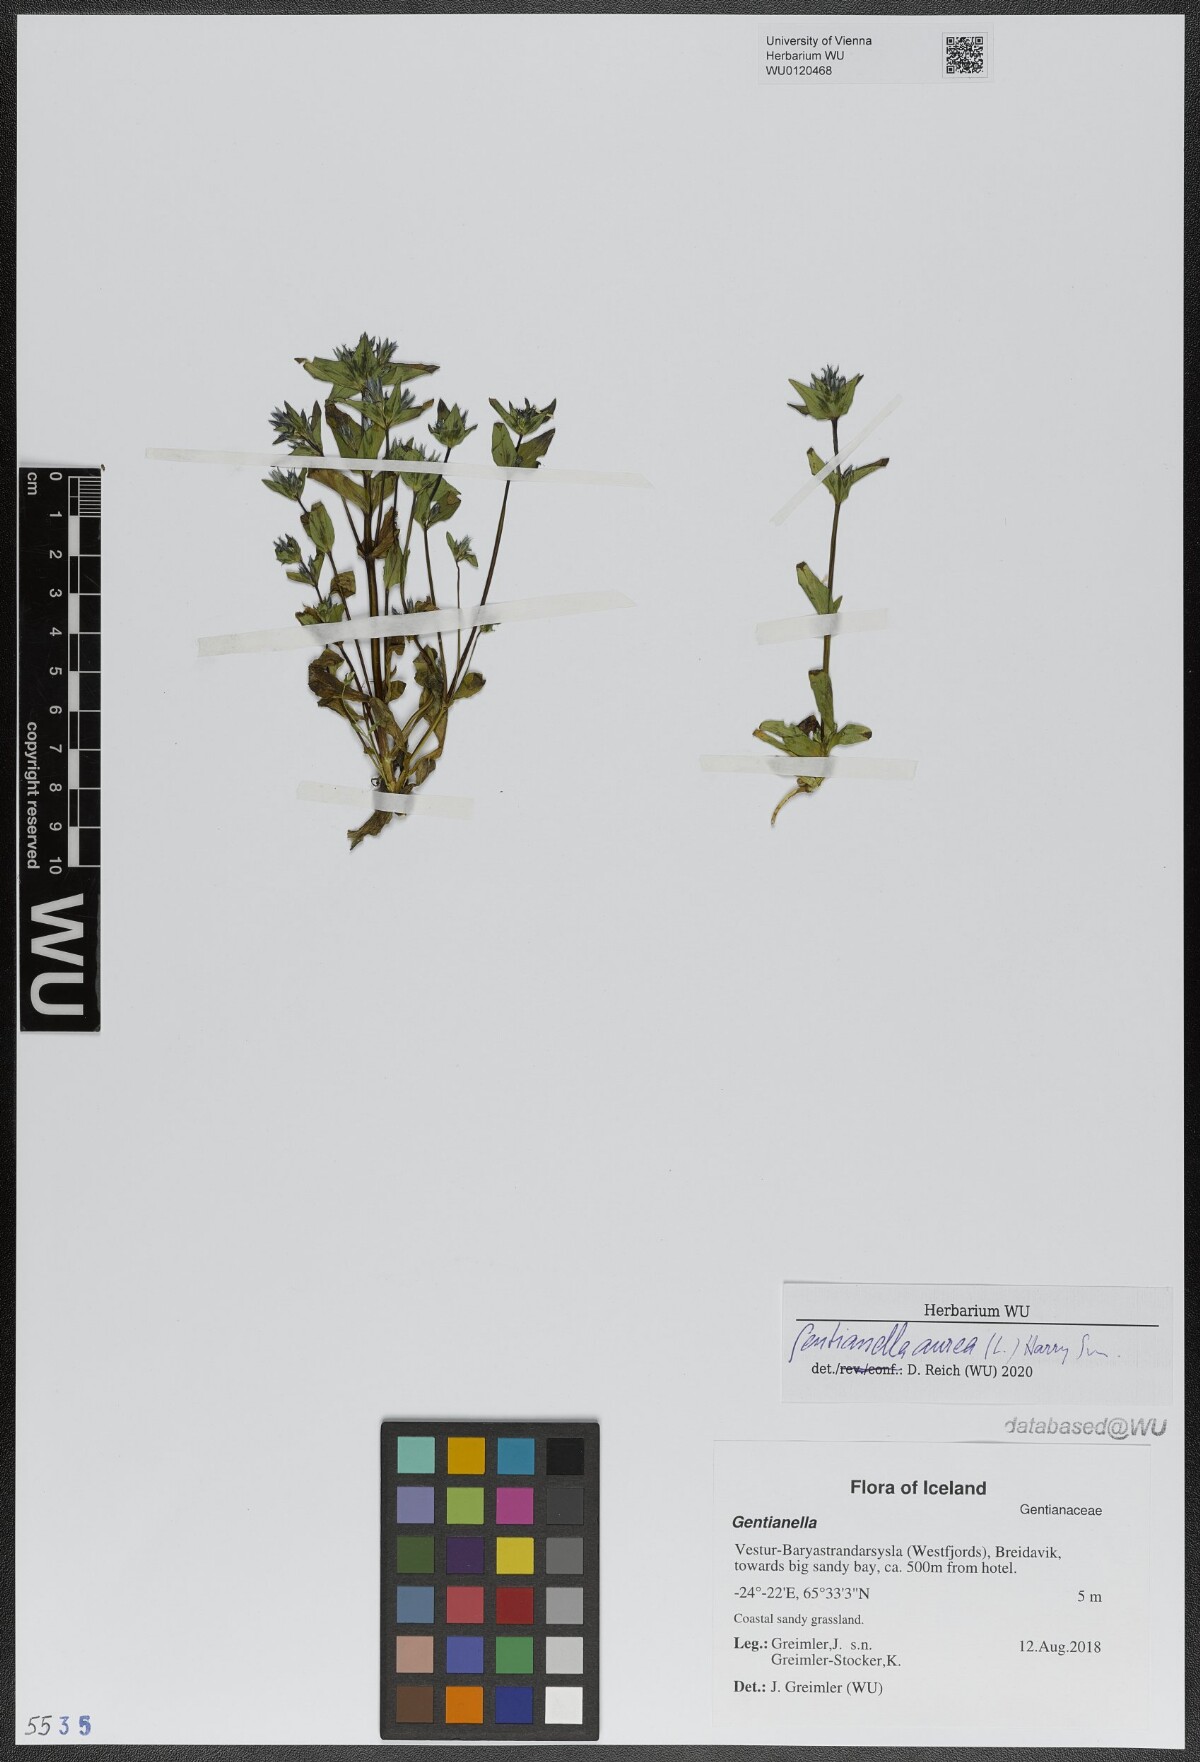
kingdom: Plantae
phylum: Tracheophyta
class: Magnoliopsida
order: Gentianales
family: Gentianaceae
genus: Gentianella
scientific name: Gentianella aurea
